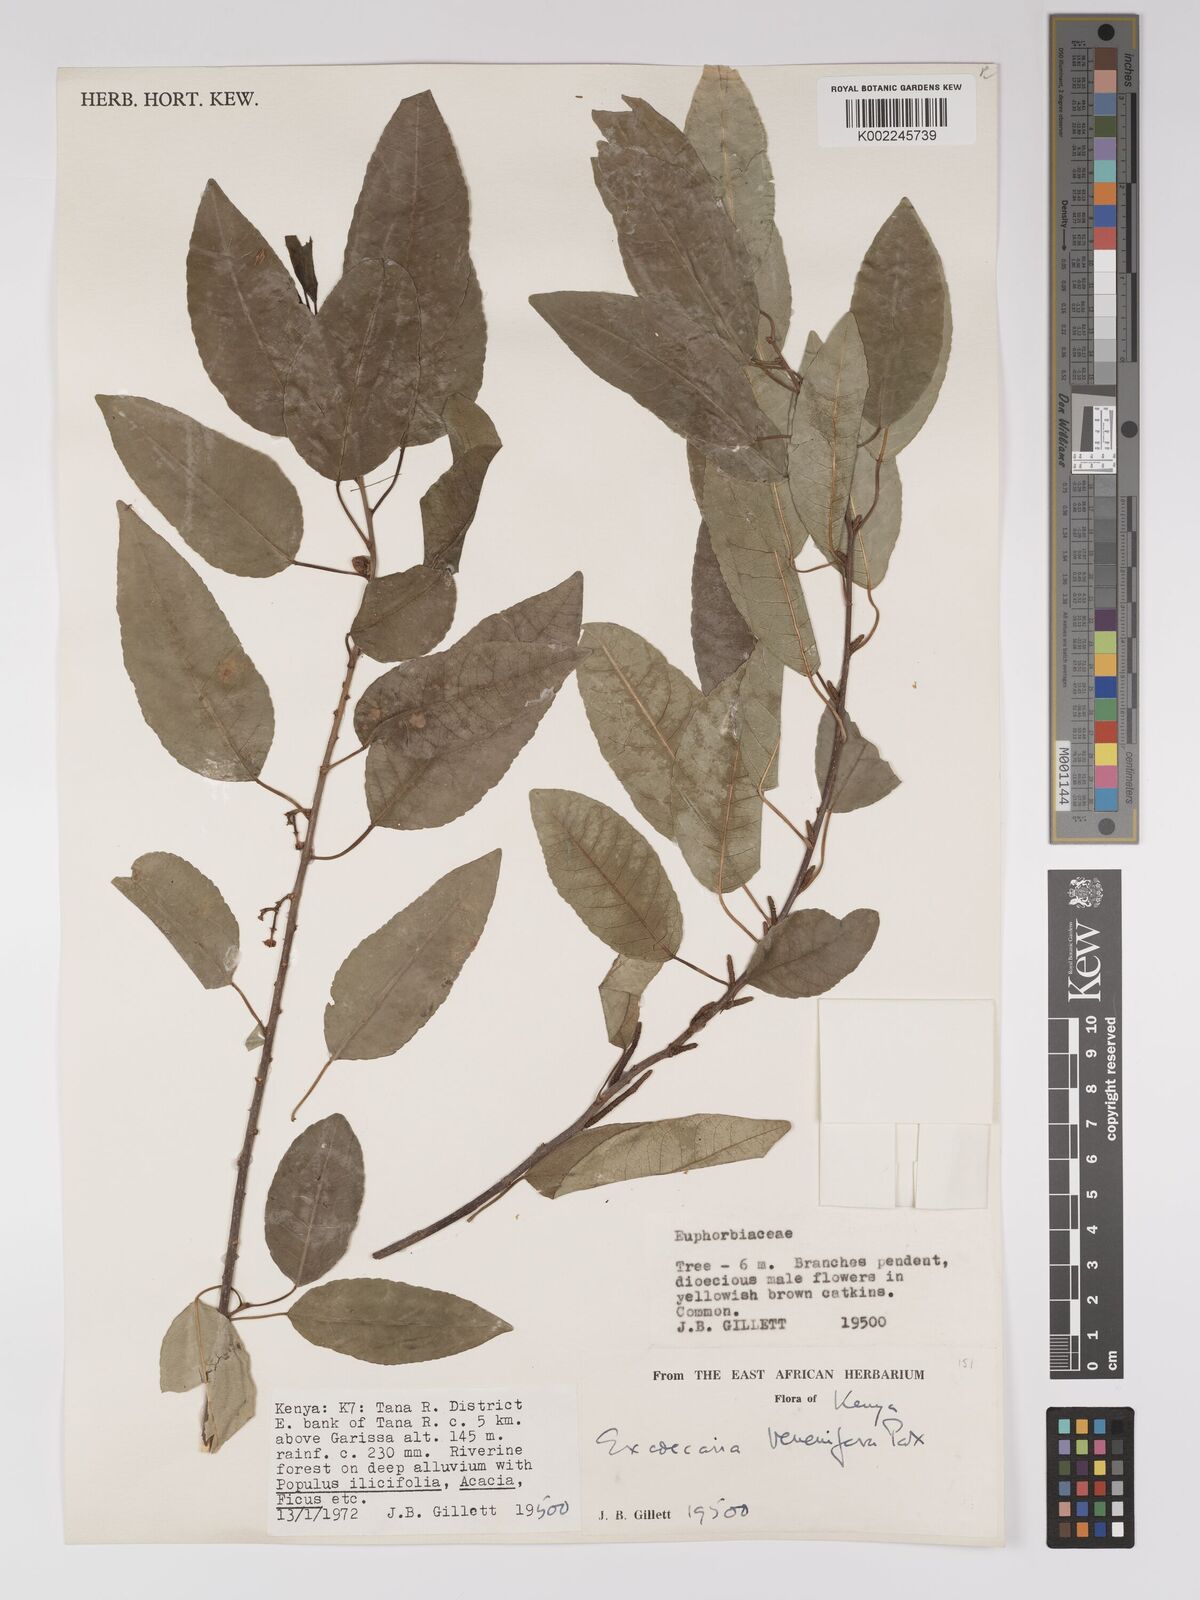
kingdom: Plantae
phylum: Tracheophyta
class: Magnoliopsida
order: Malpighiales
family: Euphorbiaceae
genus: Spirostachys
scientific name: Spirostachys venenifera
